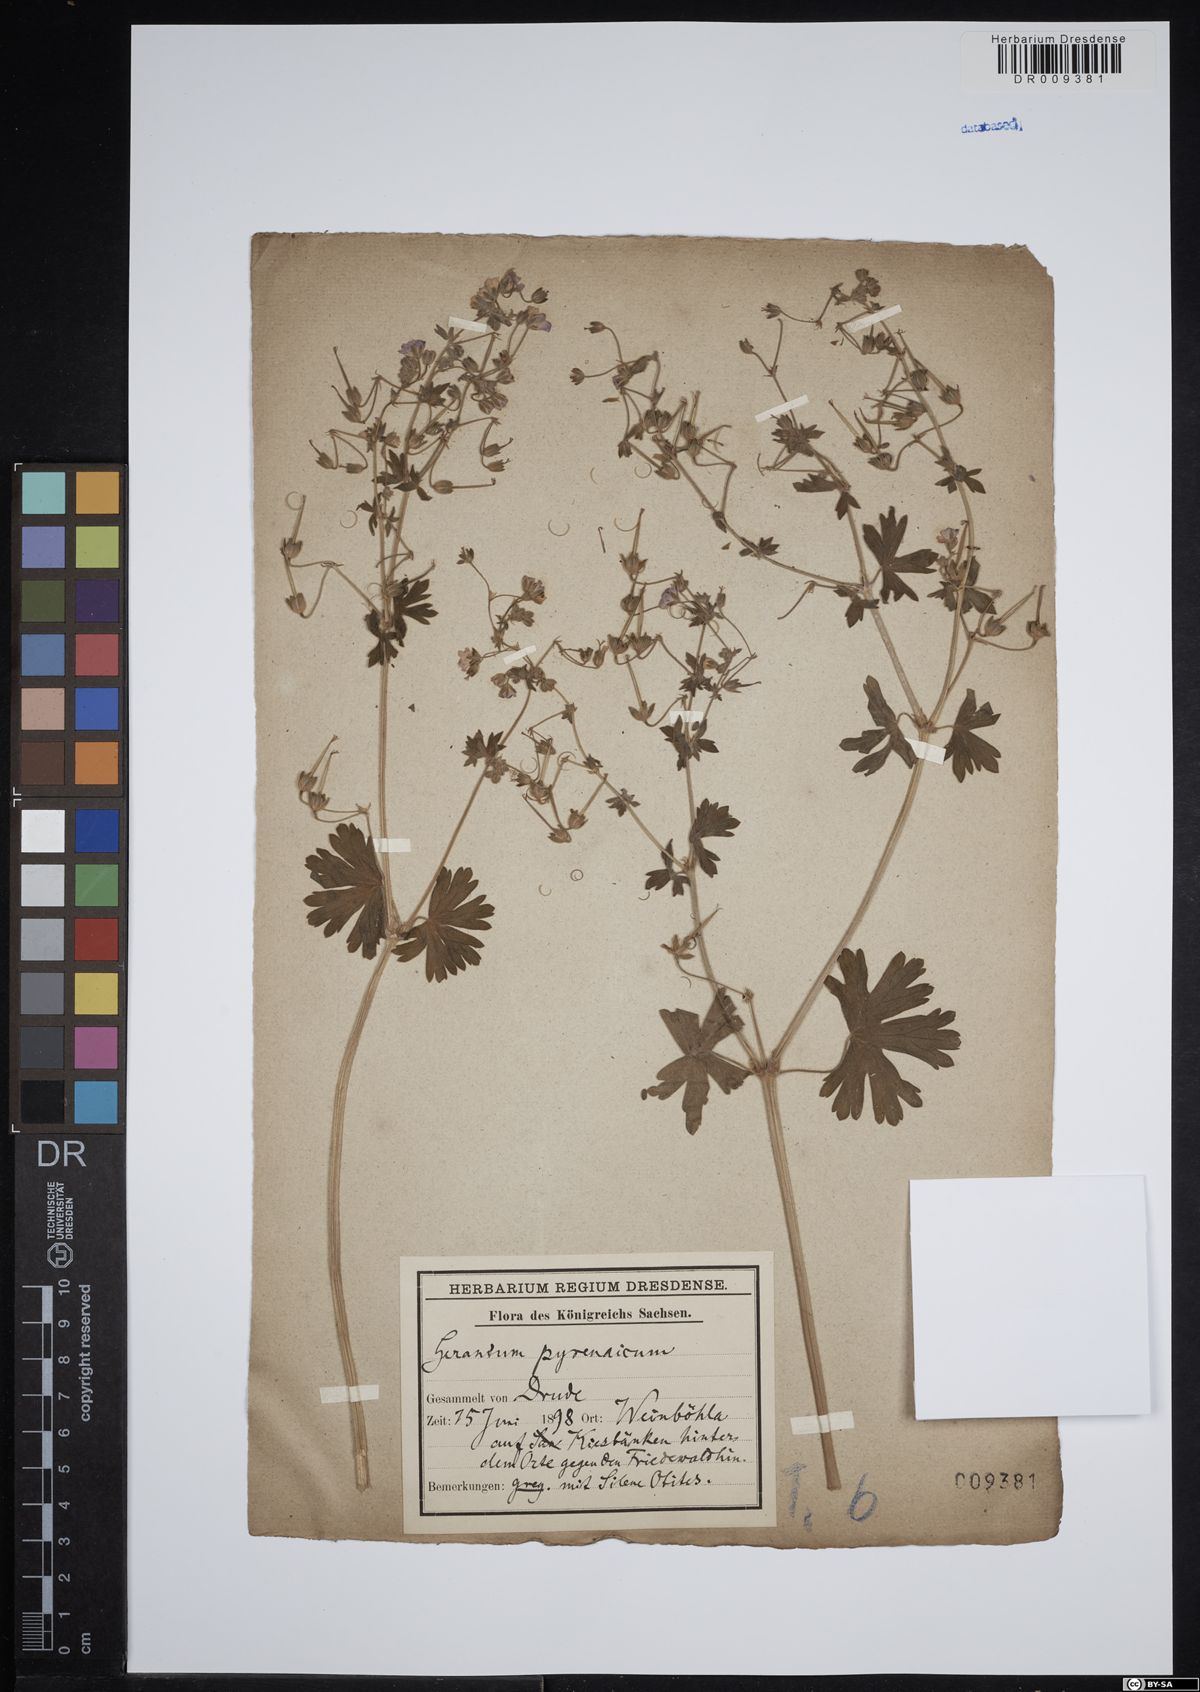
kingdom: Plantae
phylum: Tracheophyta
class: Magnoliopsida
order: Geraniales
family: Geraniaceae
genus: Geranium
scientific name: Geranium pyrenaicum
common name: Hedgerow crane's-bill
